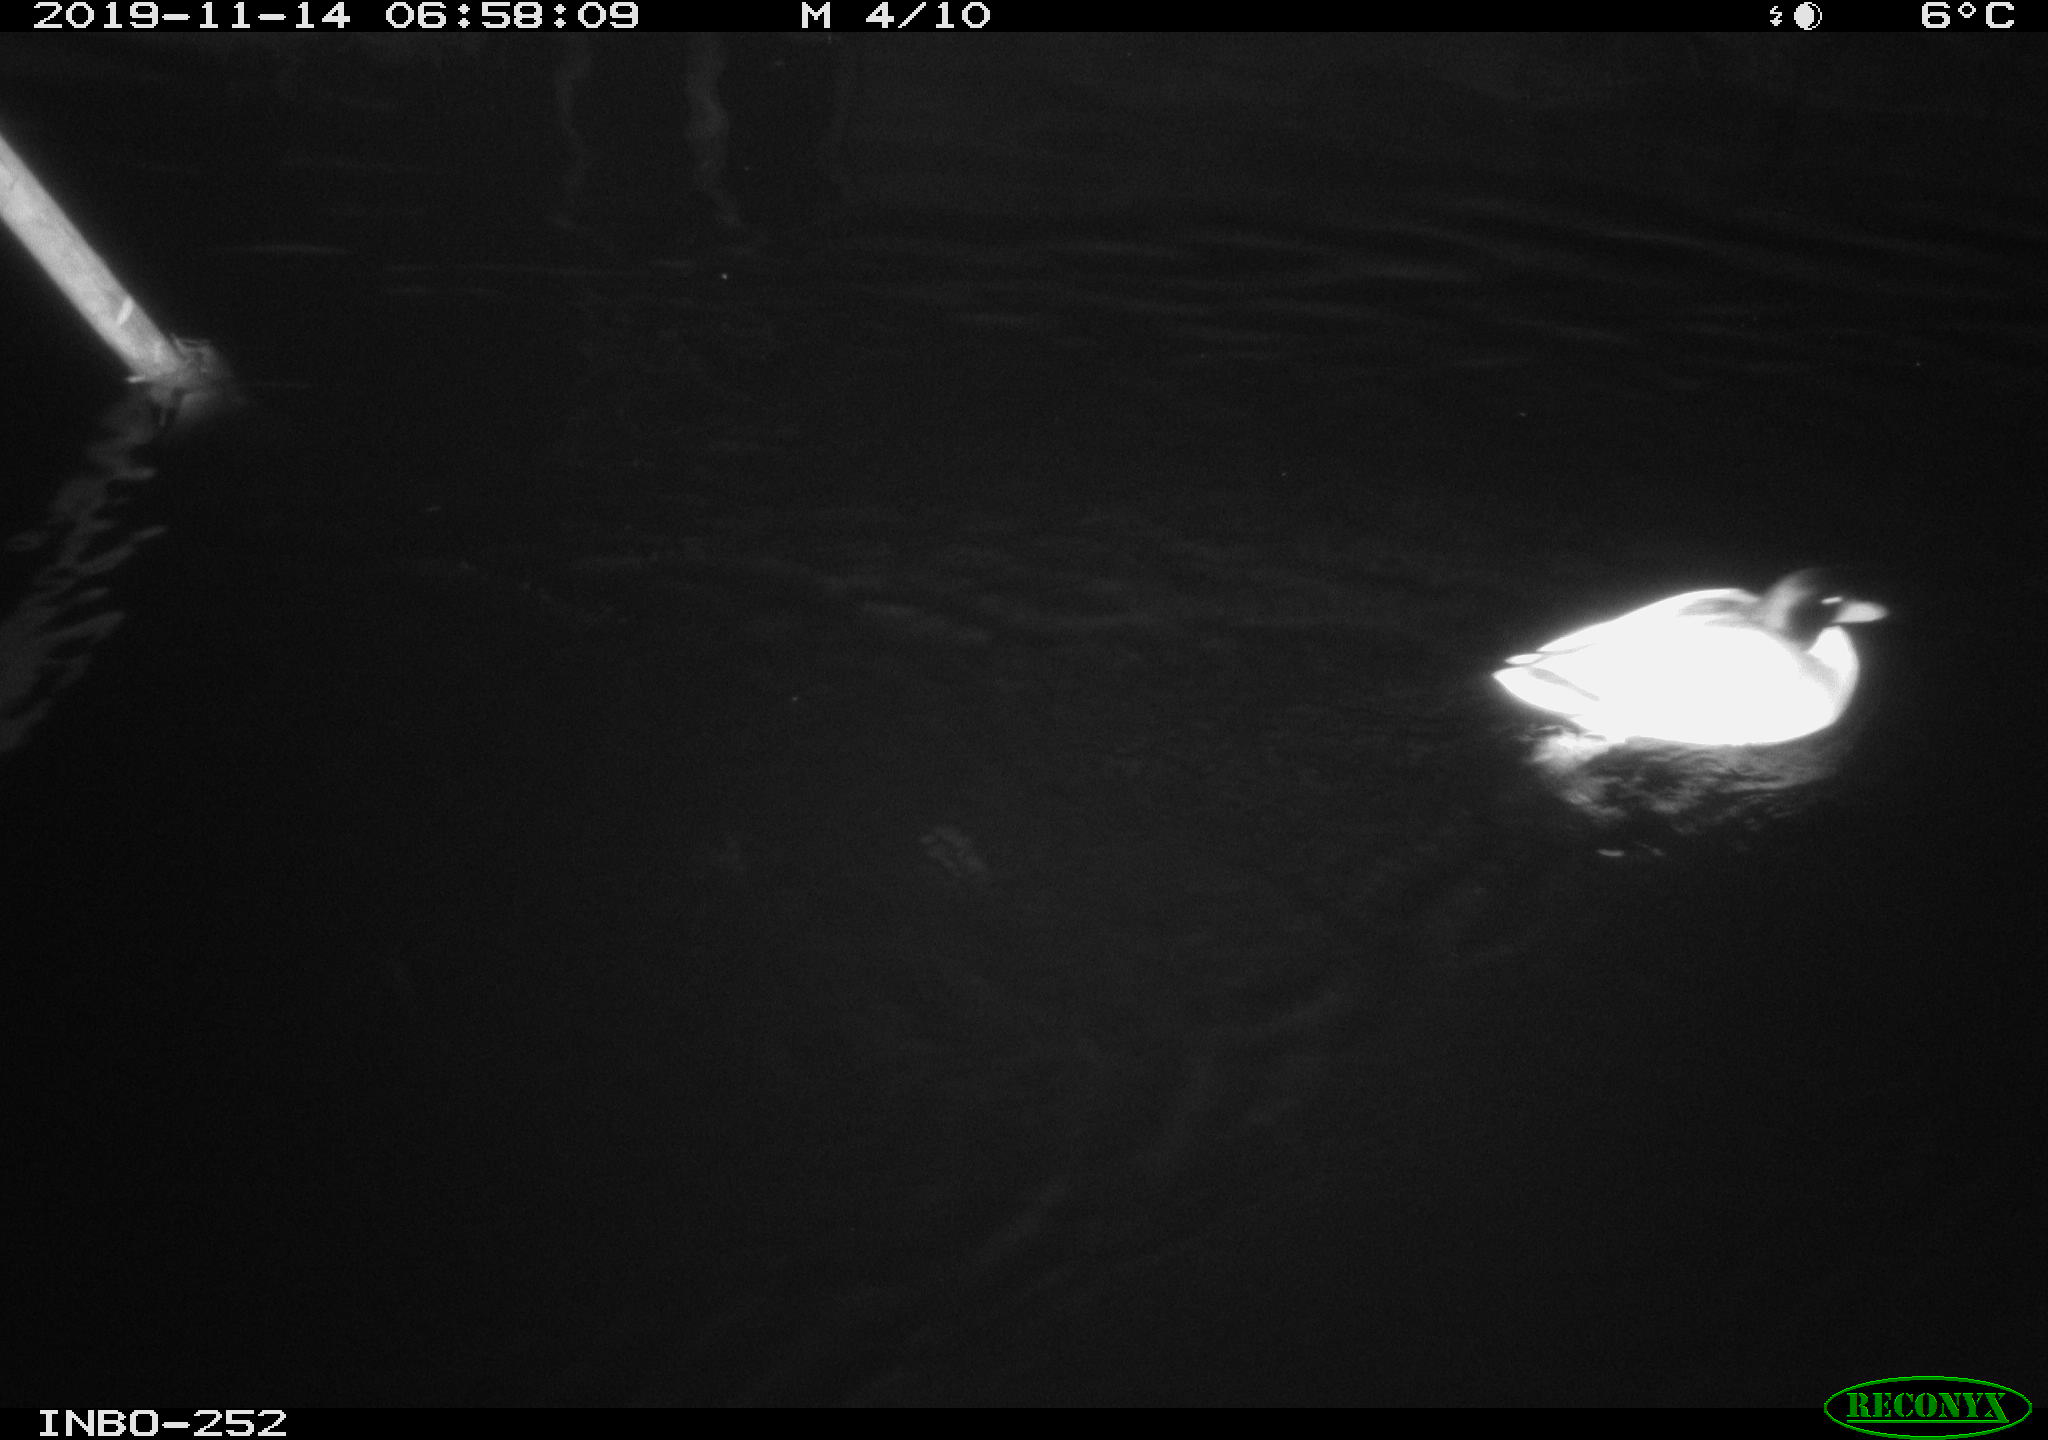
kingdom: Animalia
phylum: Chordata
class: Aves
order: Anseriformes
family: Anatidae
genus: Anas
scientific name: Anas platyrhynchos
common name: Mallard
